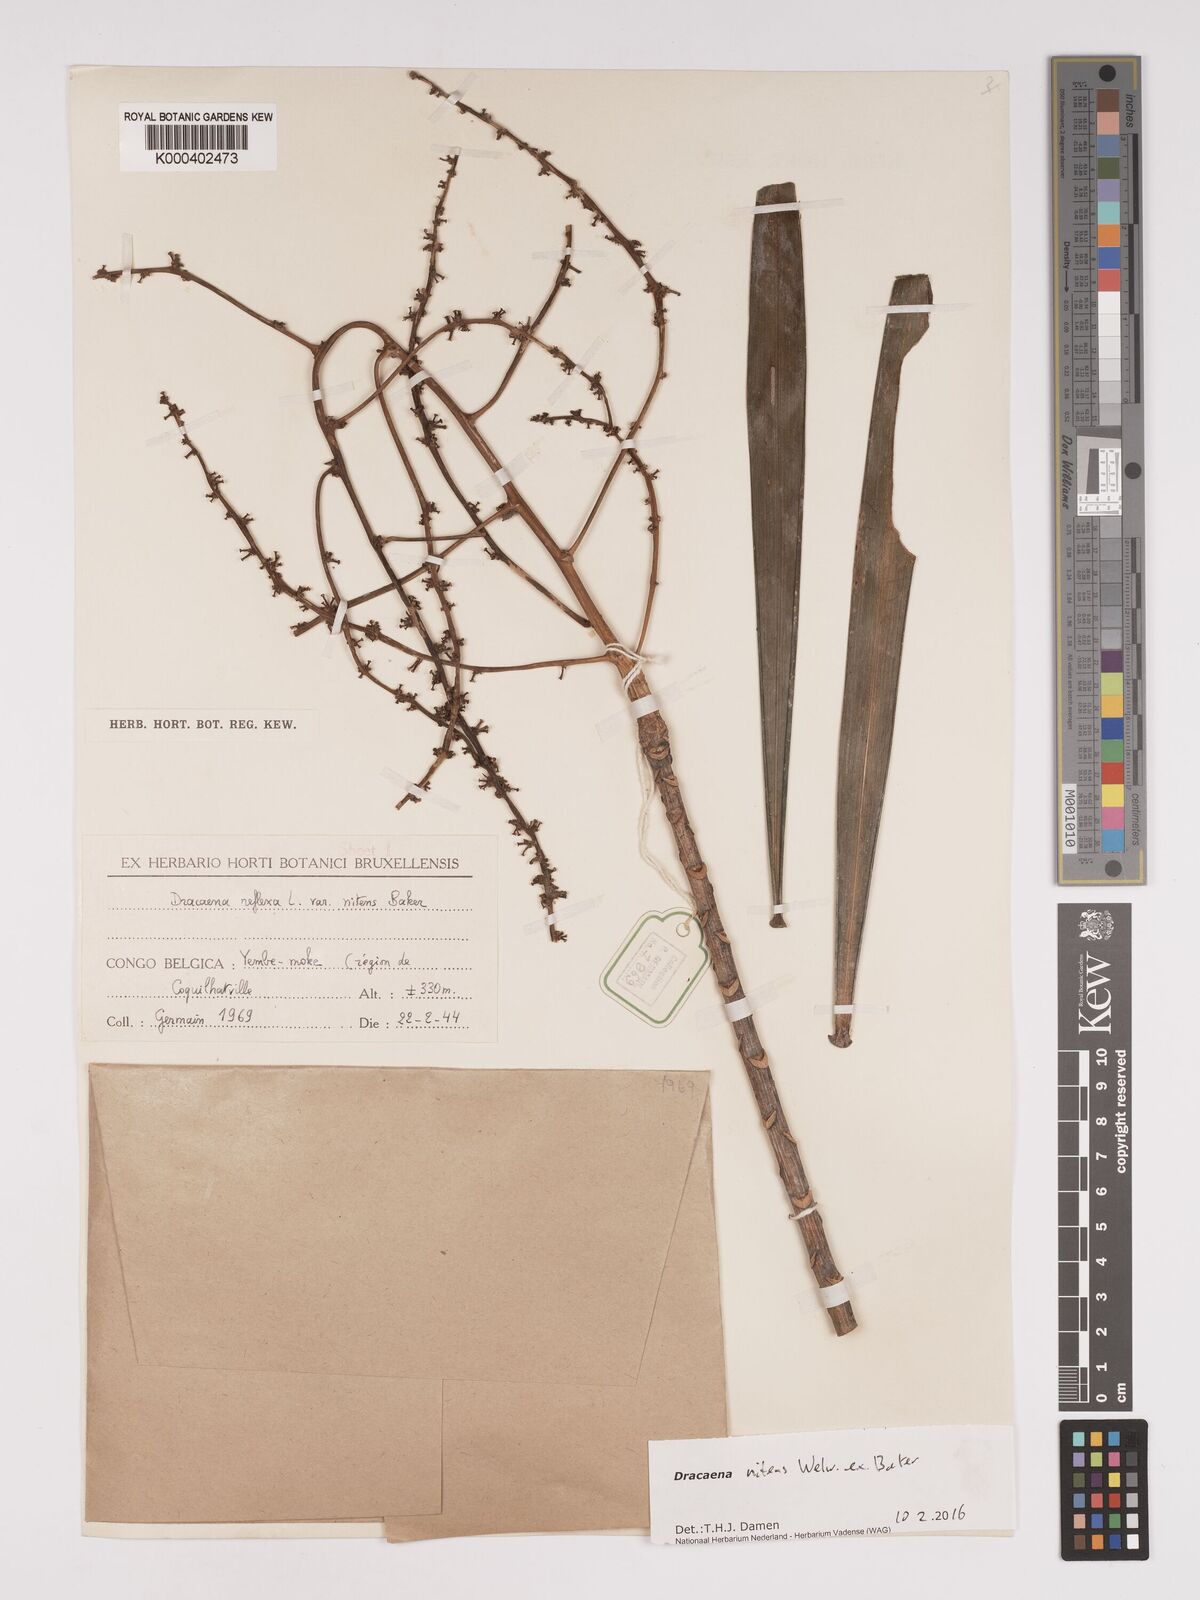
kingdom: Plantae
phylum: Tracheophyta
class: Liliopsida
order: Asparagales
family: Asparagaceae
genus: Dracaena
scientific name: Dracaena nitens
